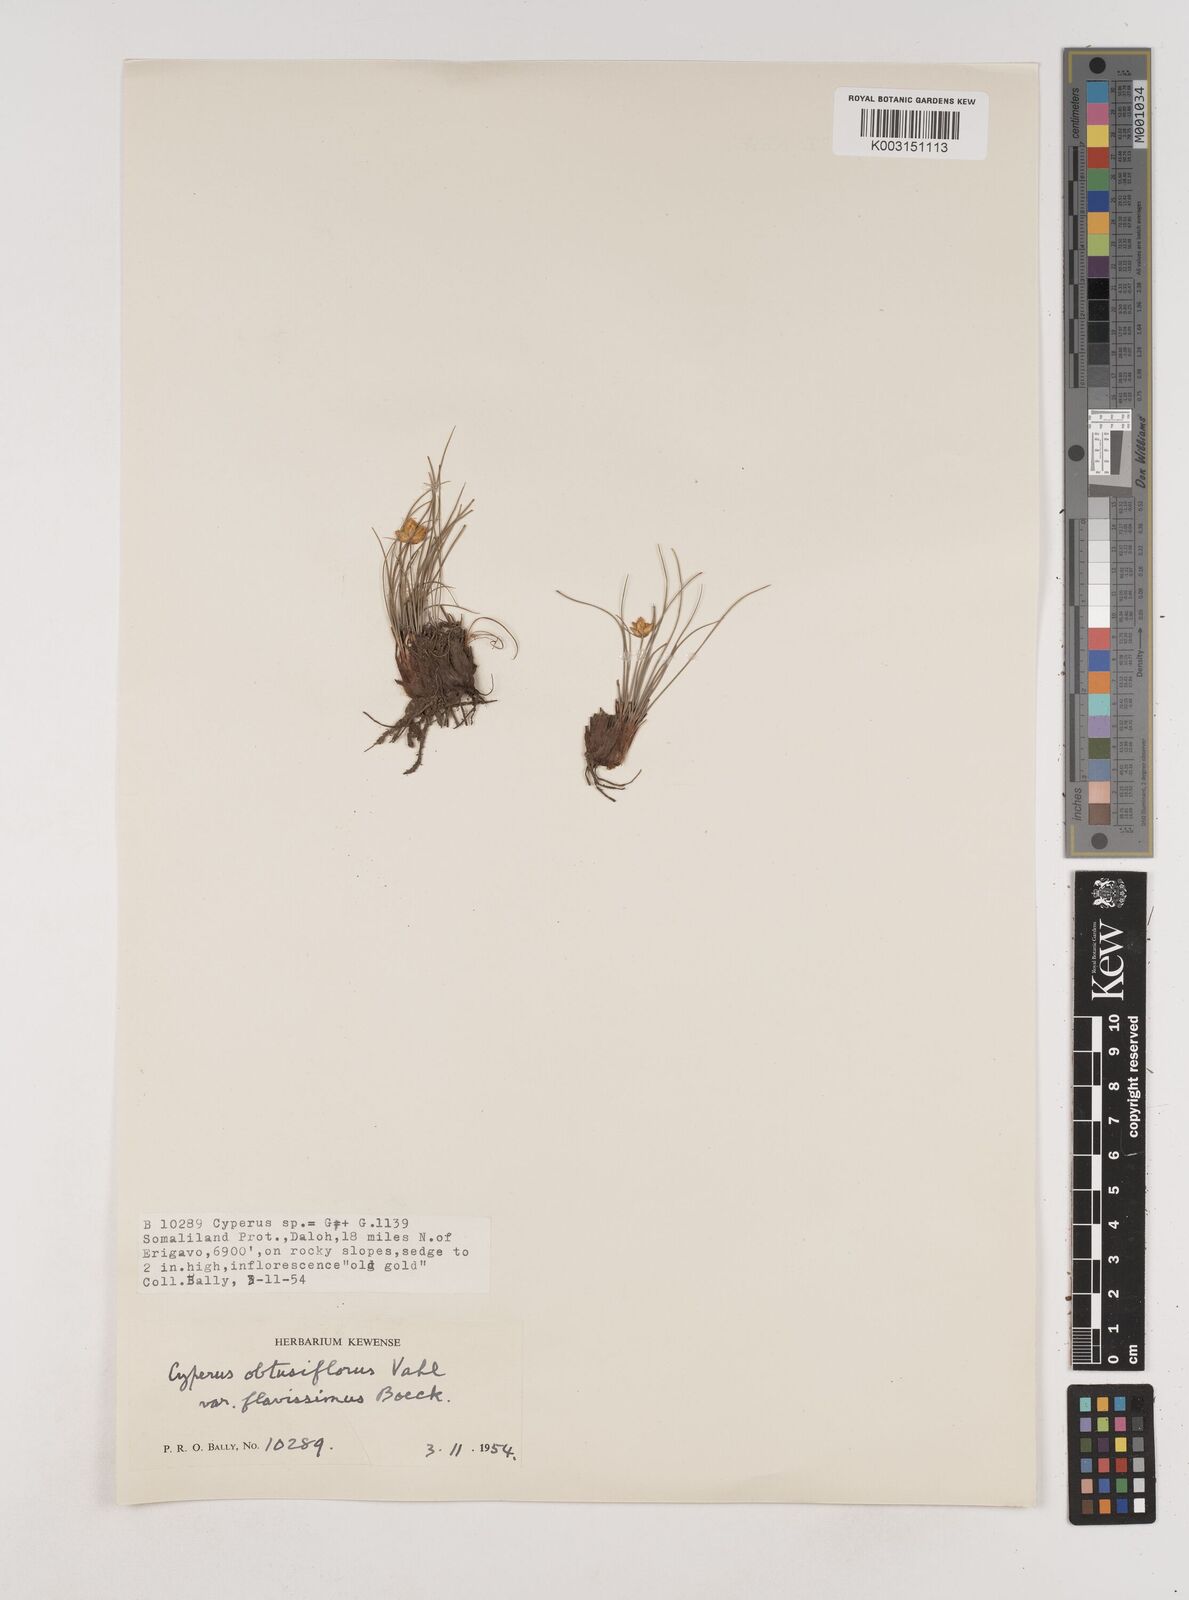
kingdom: Plantae
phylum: Tracheophyta
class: Liliopsida
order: Poales
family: Cyperaceae
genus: Cyperus
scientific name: Cyperus niveus
